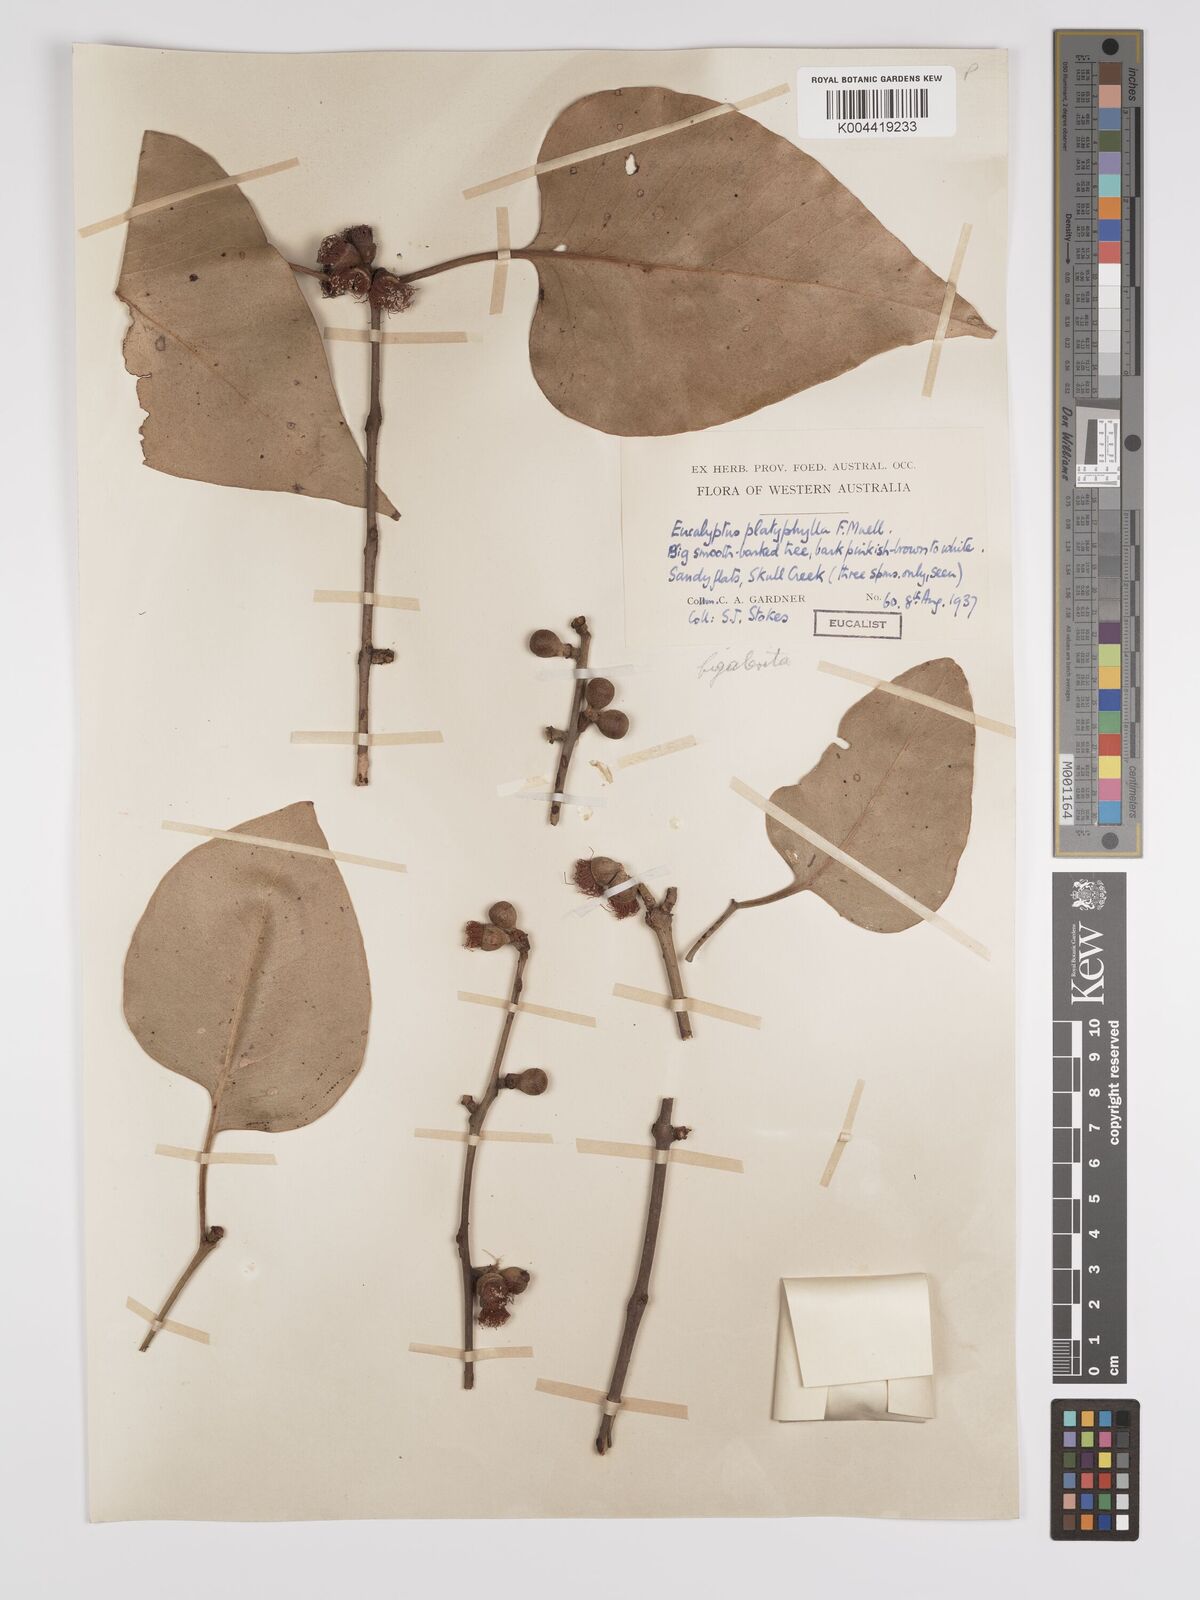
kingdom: Plantae
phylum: Tracheophyta
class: Magnoliopsida
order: Myrtales
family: Myrtaceae
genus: Eucalyptus
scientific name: Eucalyptus bigalerita
